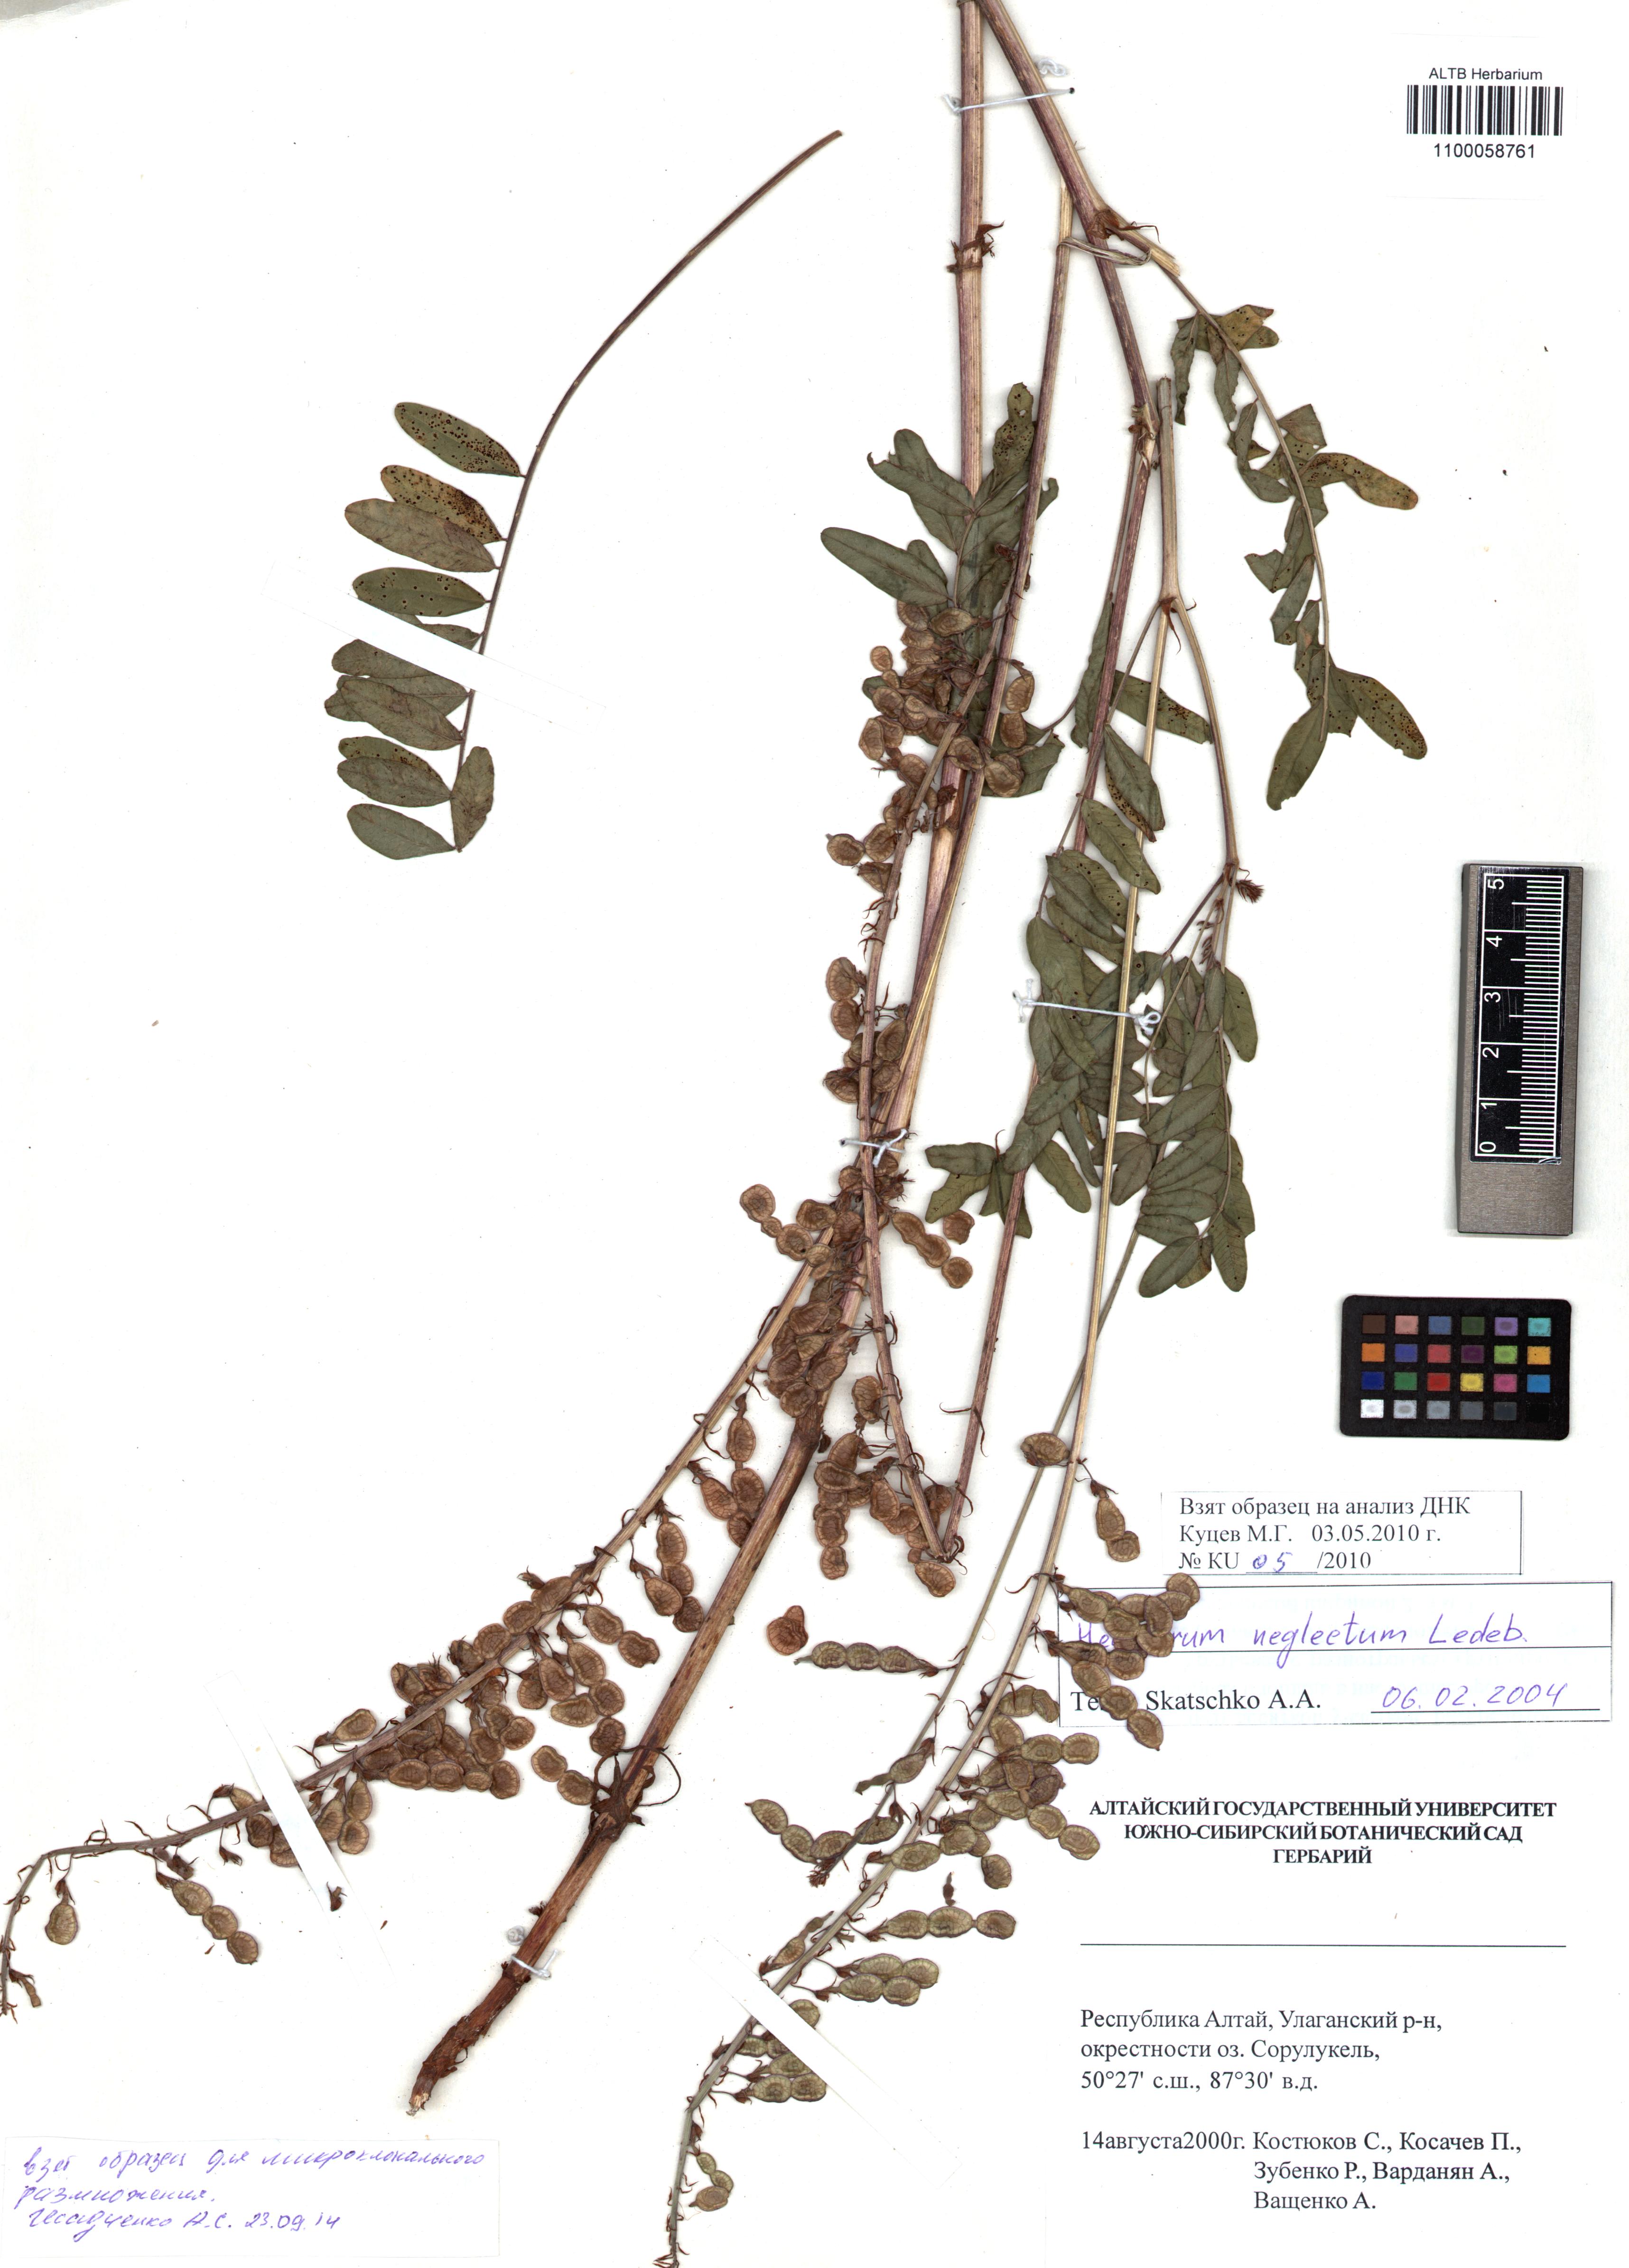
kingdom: Plantae
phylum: Tracheophyta
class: Magnoliopsida
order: Fabales
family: Fabaceae
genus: Hedysarum
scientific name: Hedysarum neglectum
